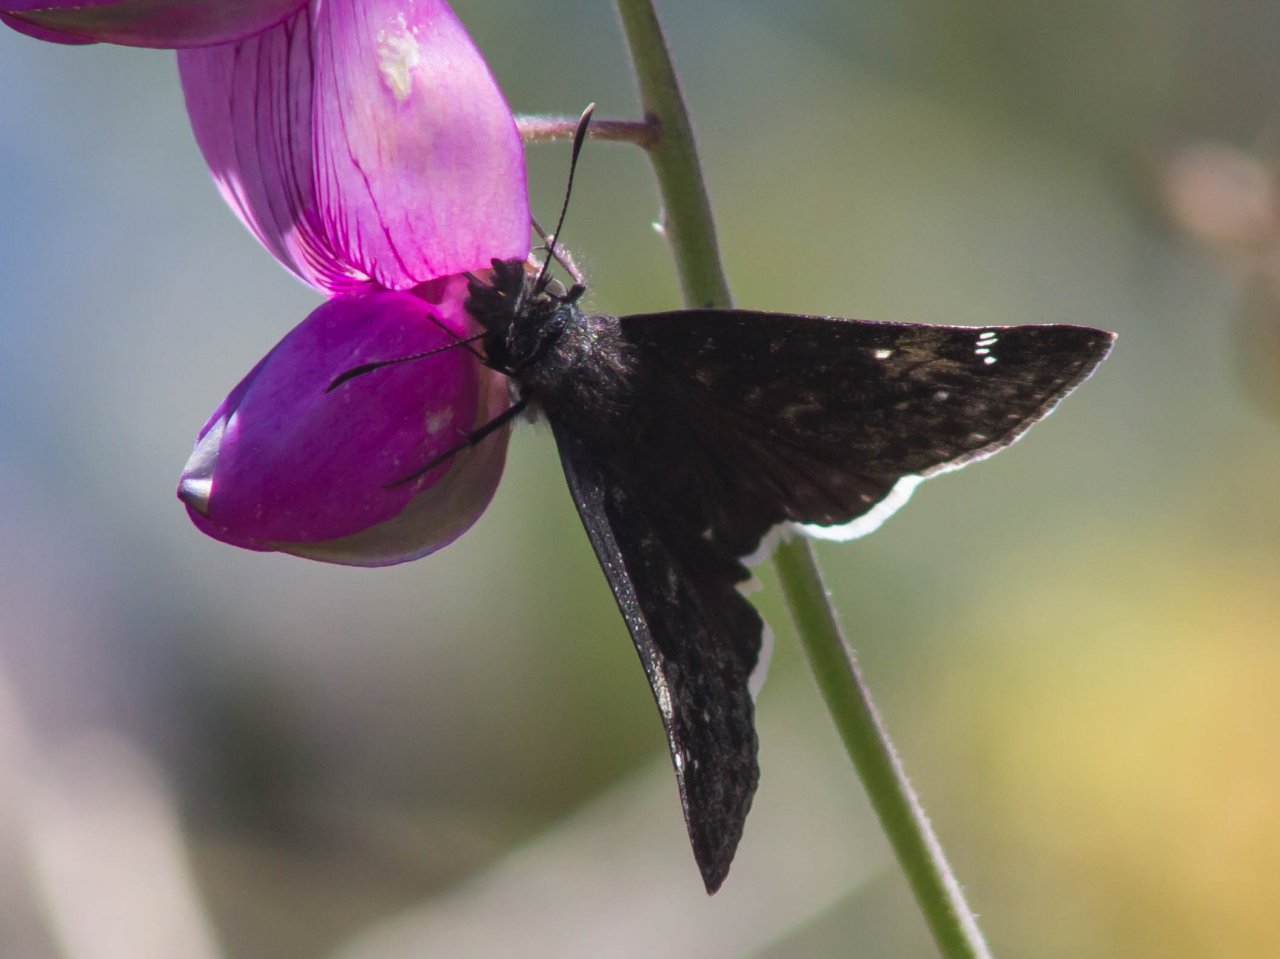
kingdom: Animalia
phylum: Arthropoda
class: Insecta
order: Lepidoptera
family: Hesperiidae
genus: Erynnis
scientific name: Erynnis funeralis
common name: Funereal Duskywing
